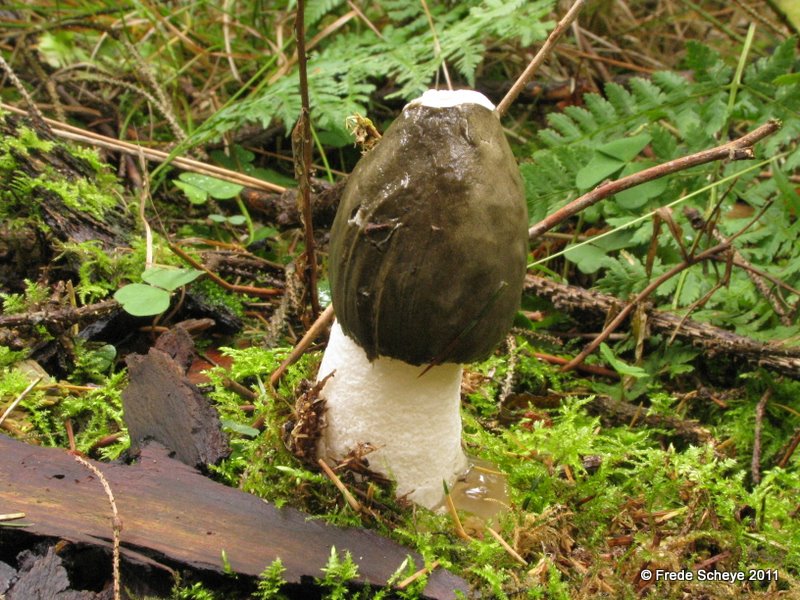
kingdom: Fungi
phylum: Basidiomycota
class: Agaricomycetes
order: Phallales
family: Phallaceae
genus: Phallus
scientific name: Phallus impudicus
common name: almindelig stinksvamp
